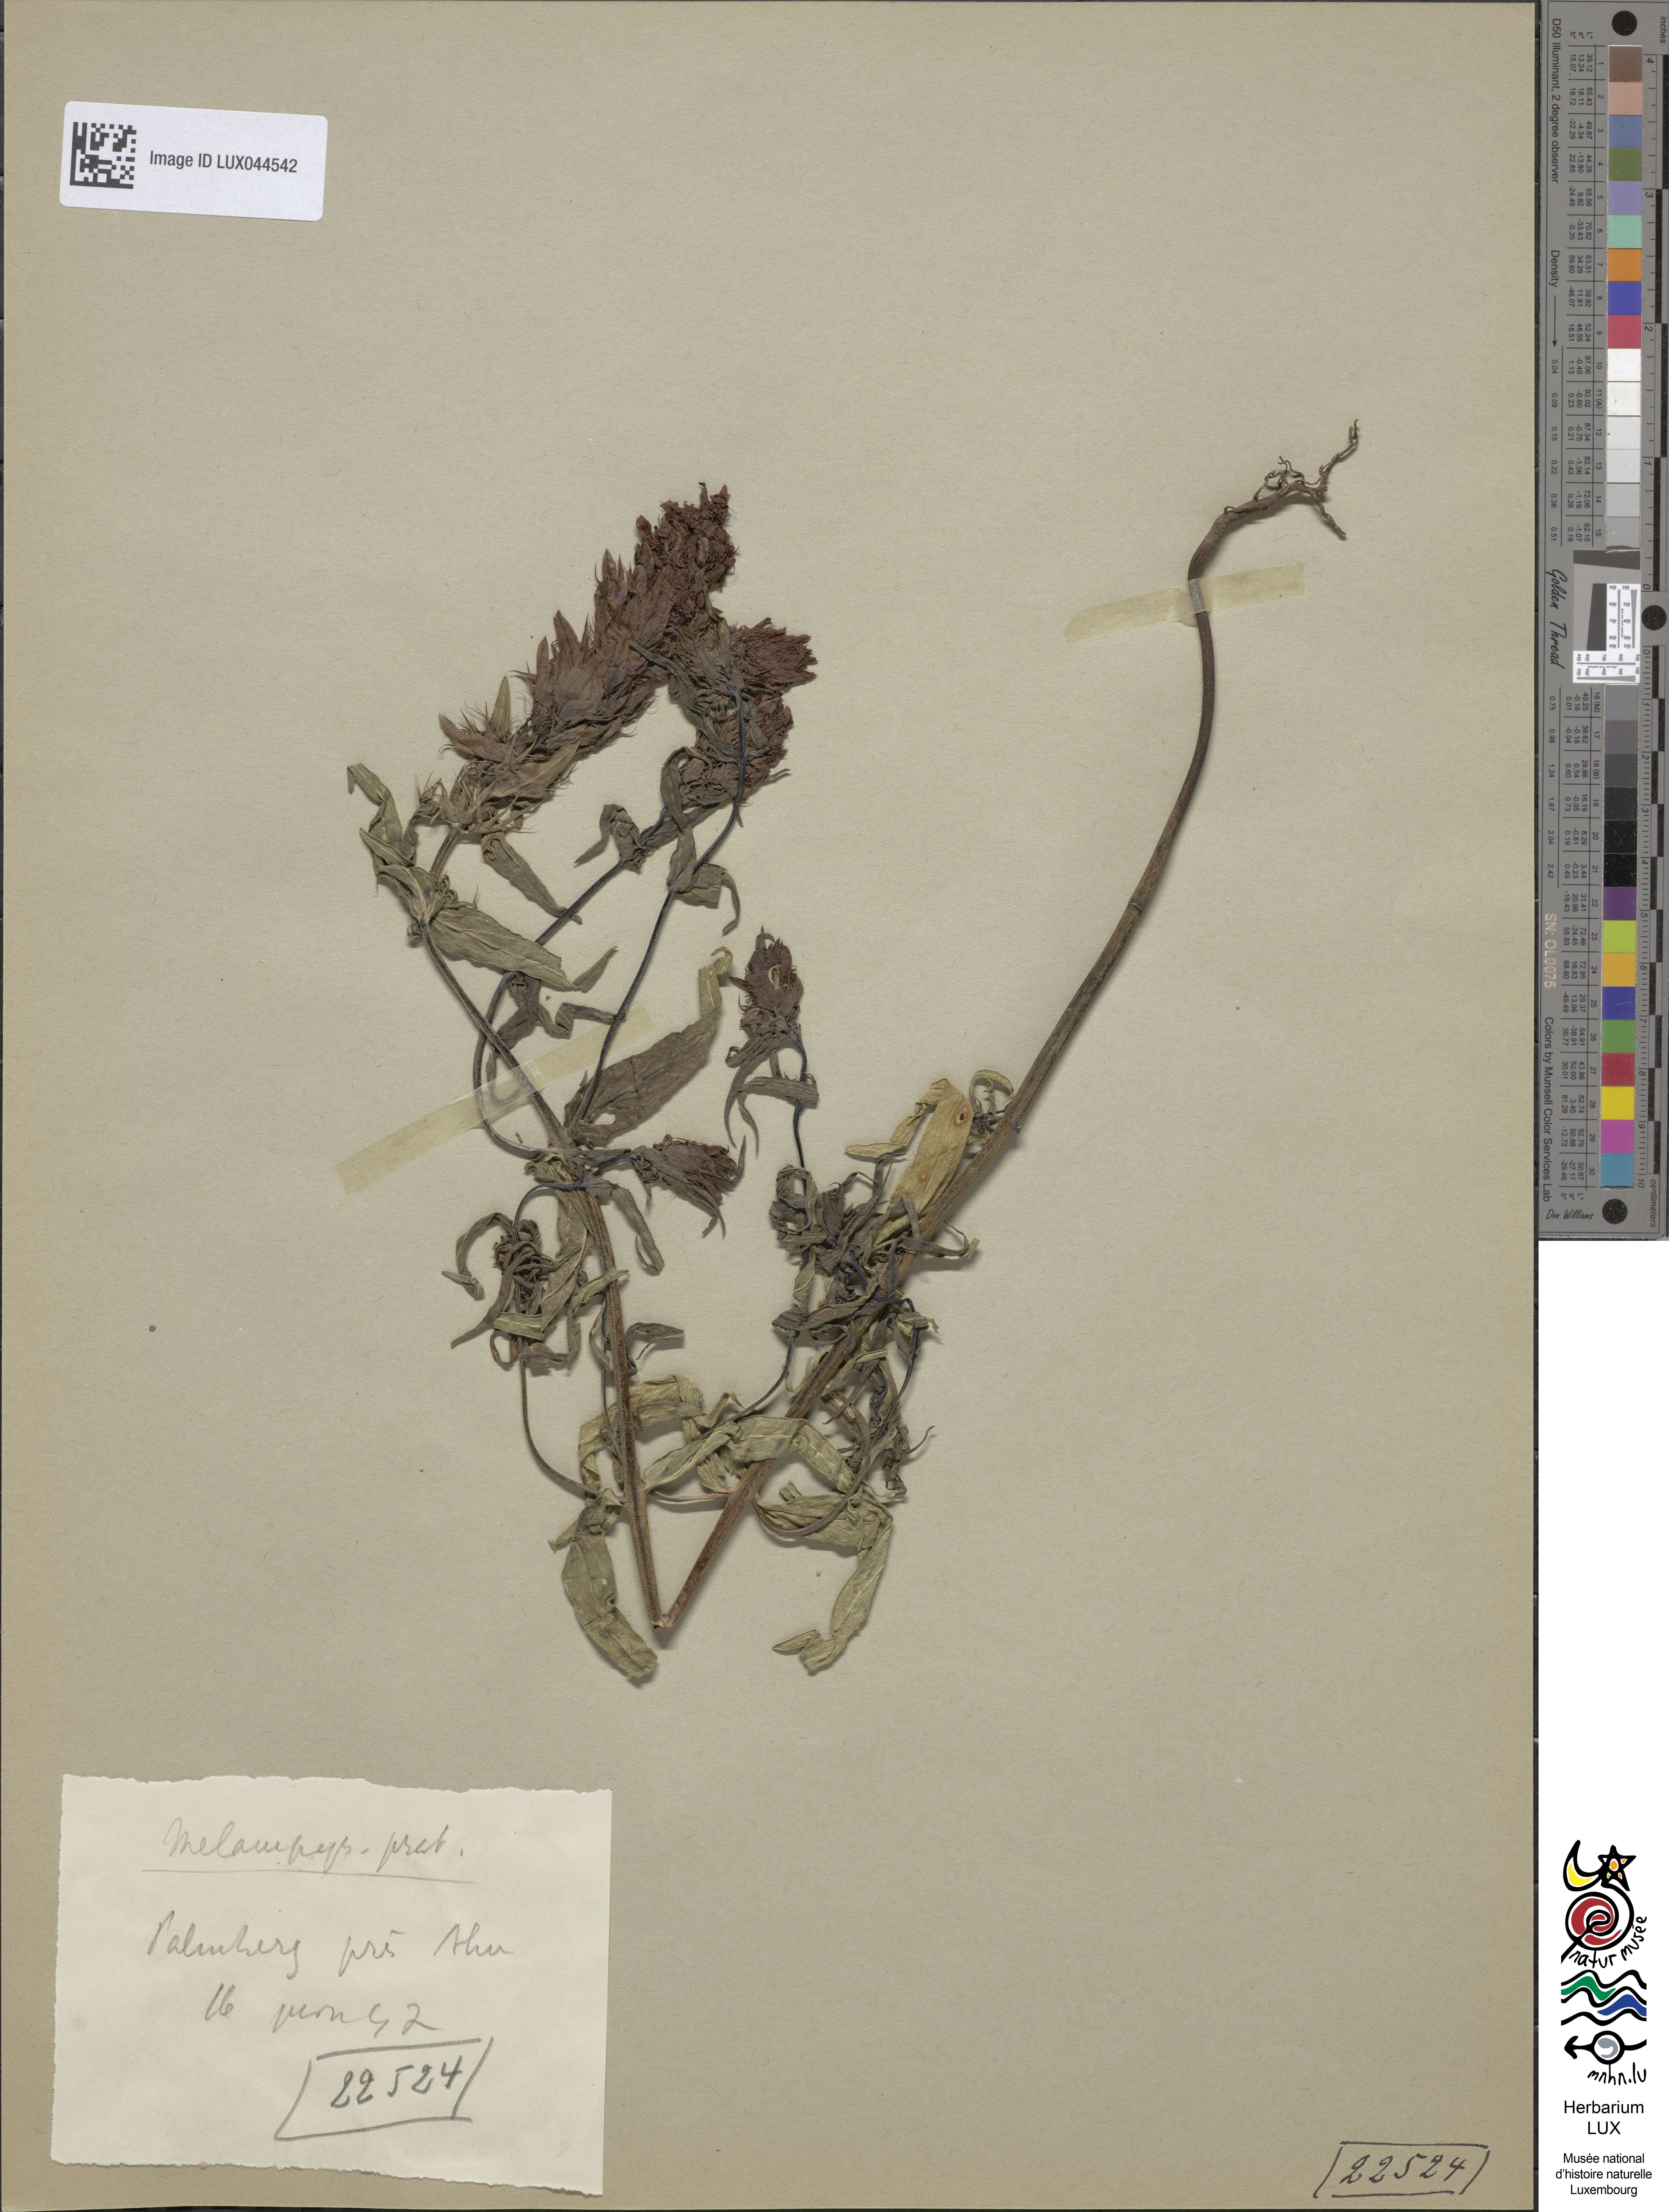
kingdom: Plantae
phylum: Tracheophyta
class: Magnoliopsida
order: Lamiales
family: Orobanchaceae
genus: Melampyrum
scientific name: Melampyrum pratense
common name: Common cow-wheat
